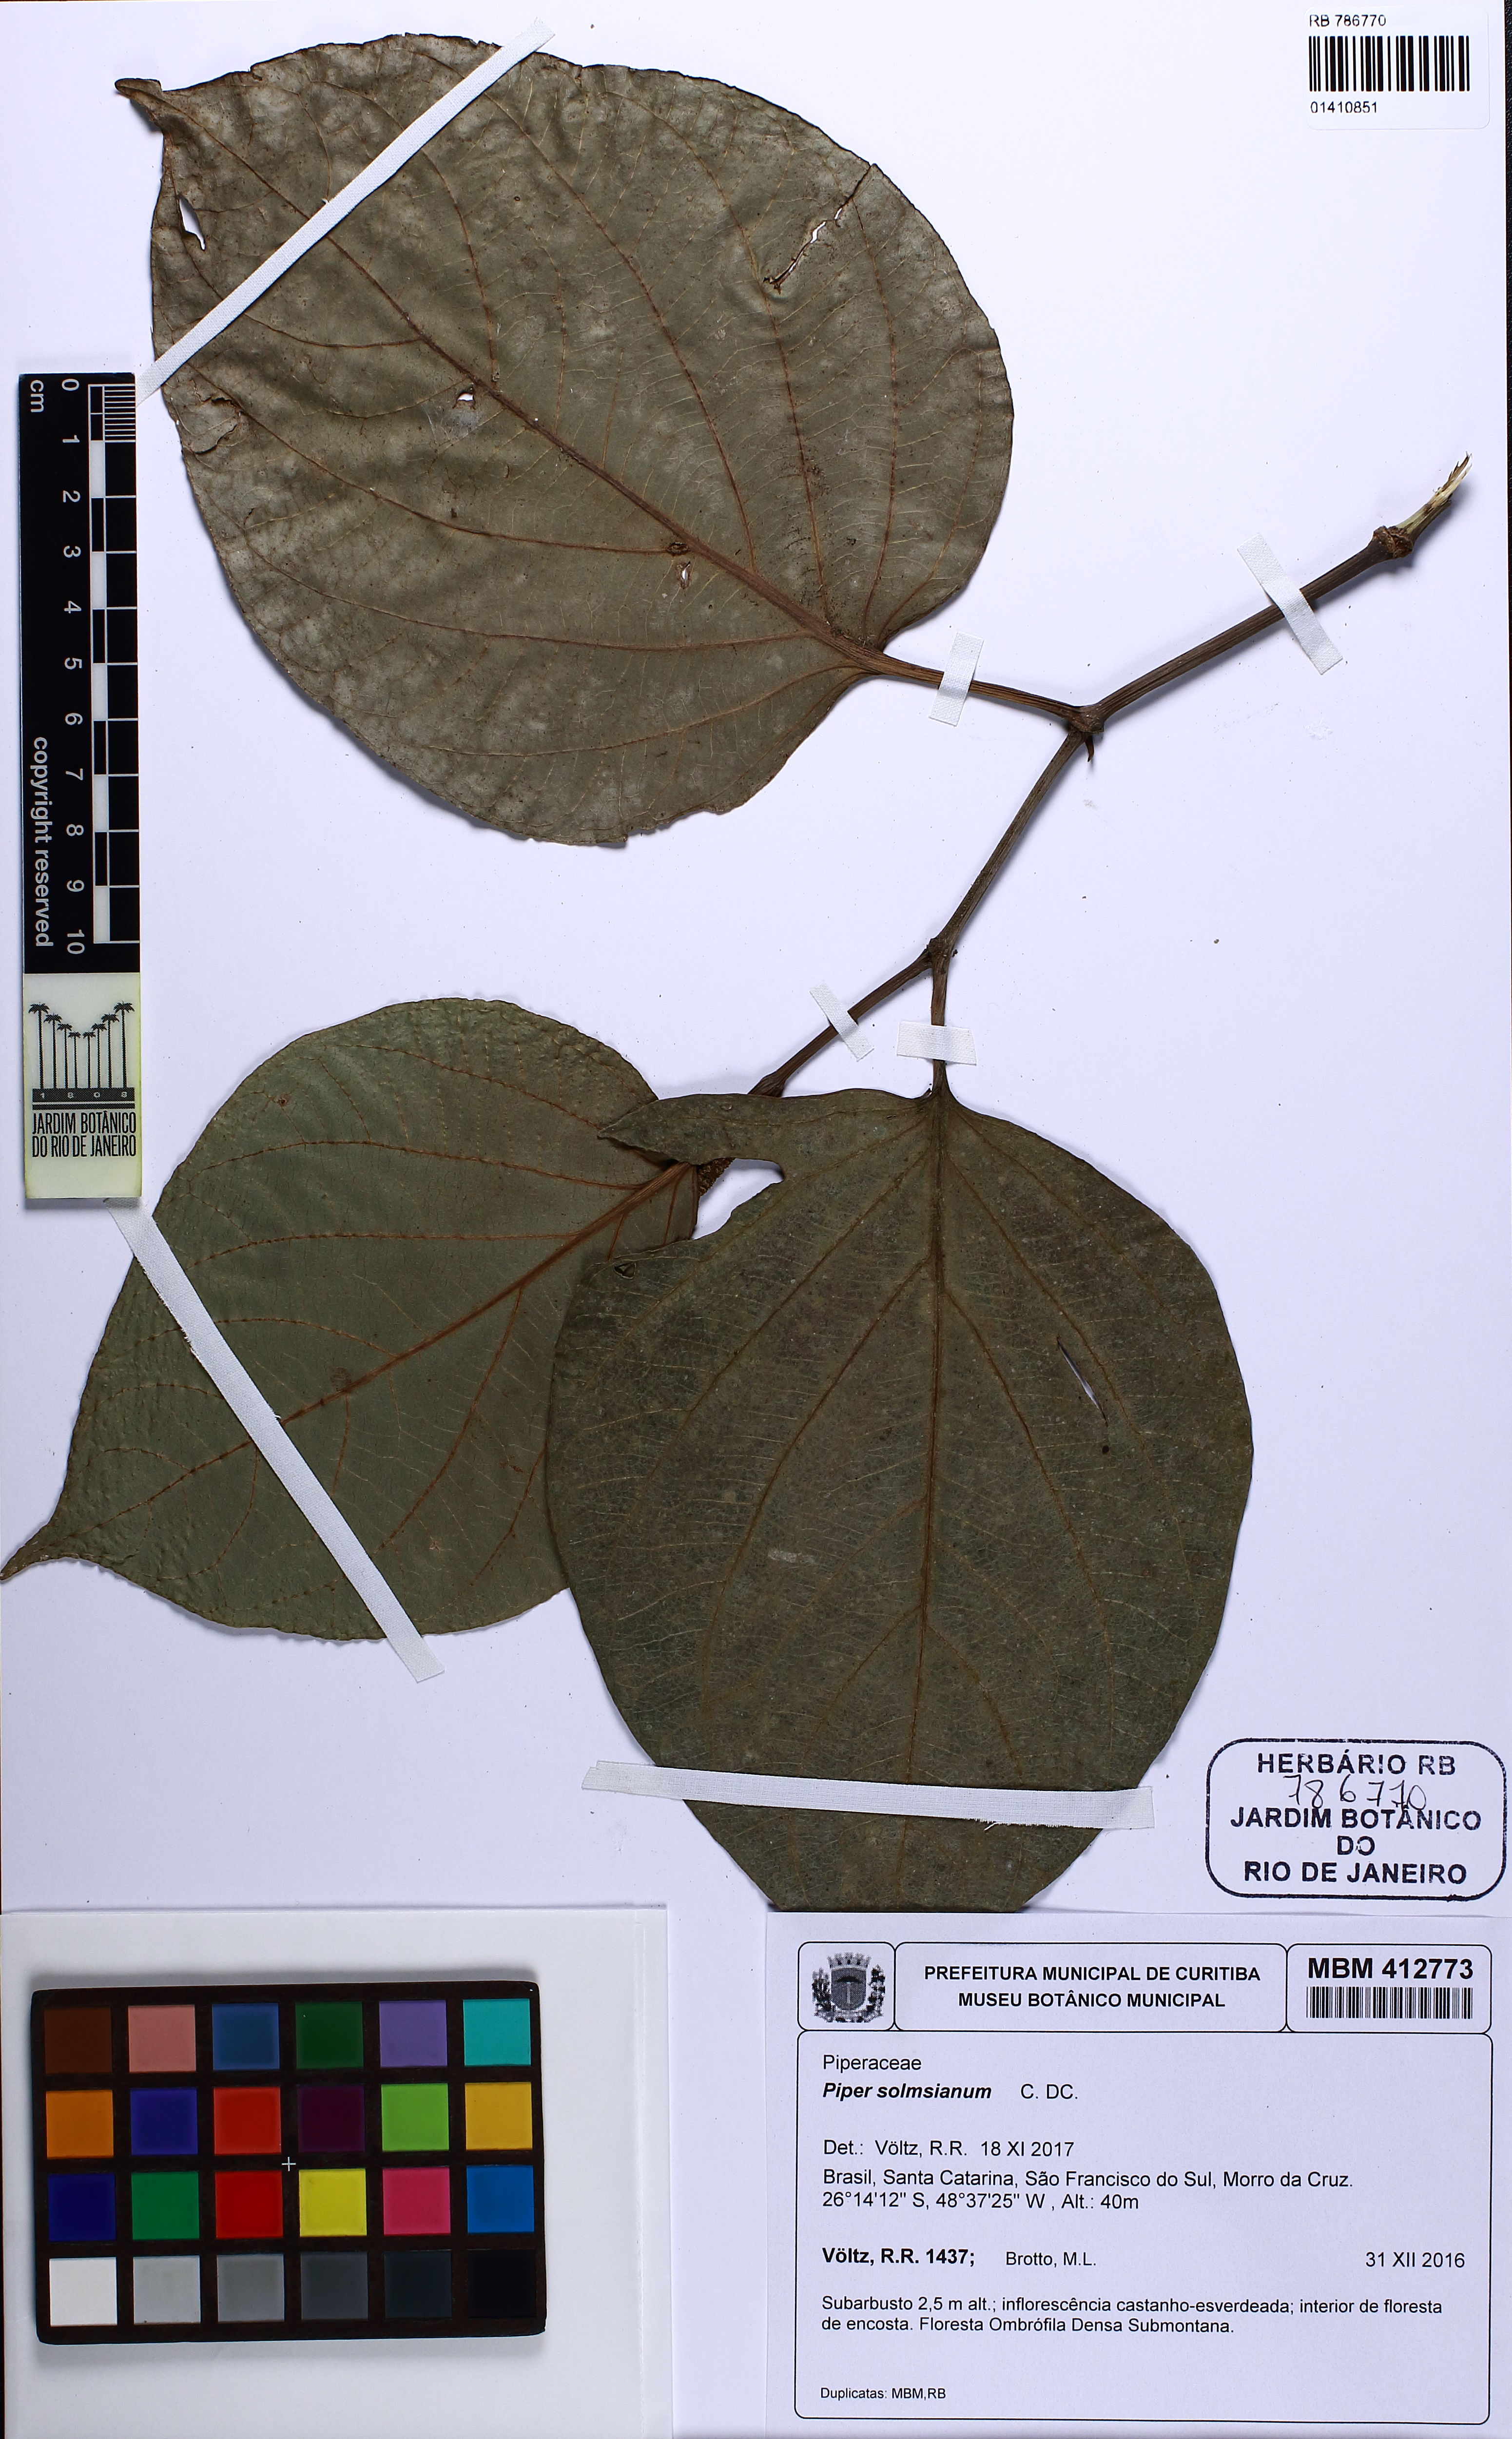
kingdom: Plantae
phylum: Tracheophyta
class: Magnoliopsida
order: Piperales
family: Piperaceae
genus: Piper
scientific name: Piper solmsianum
